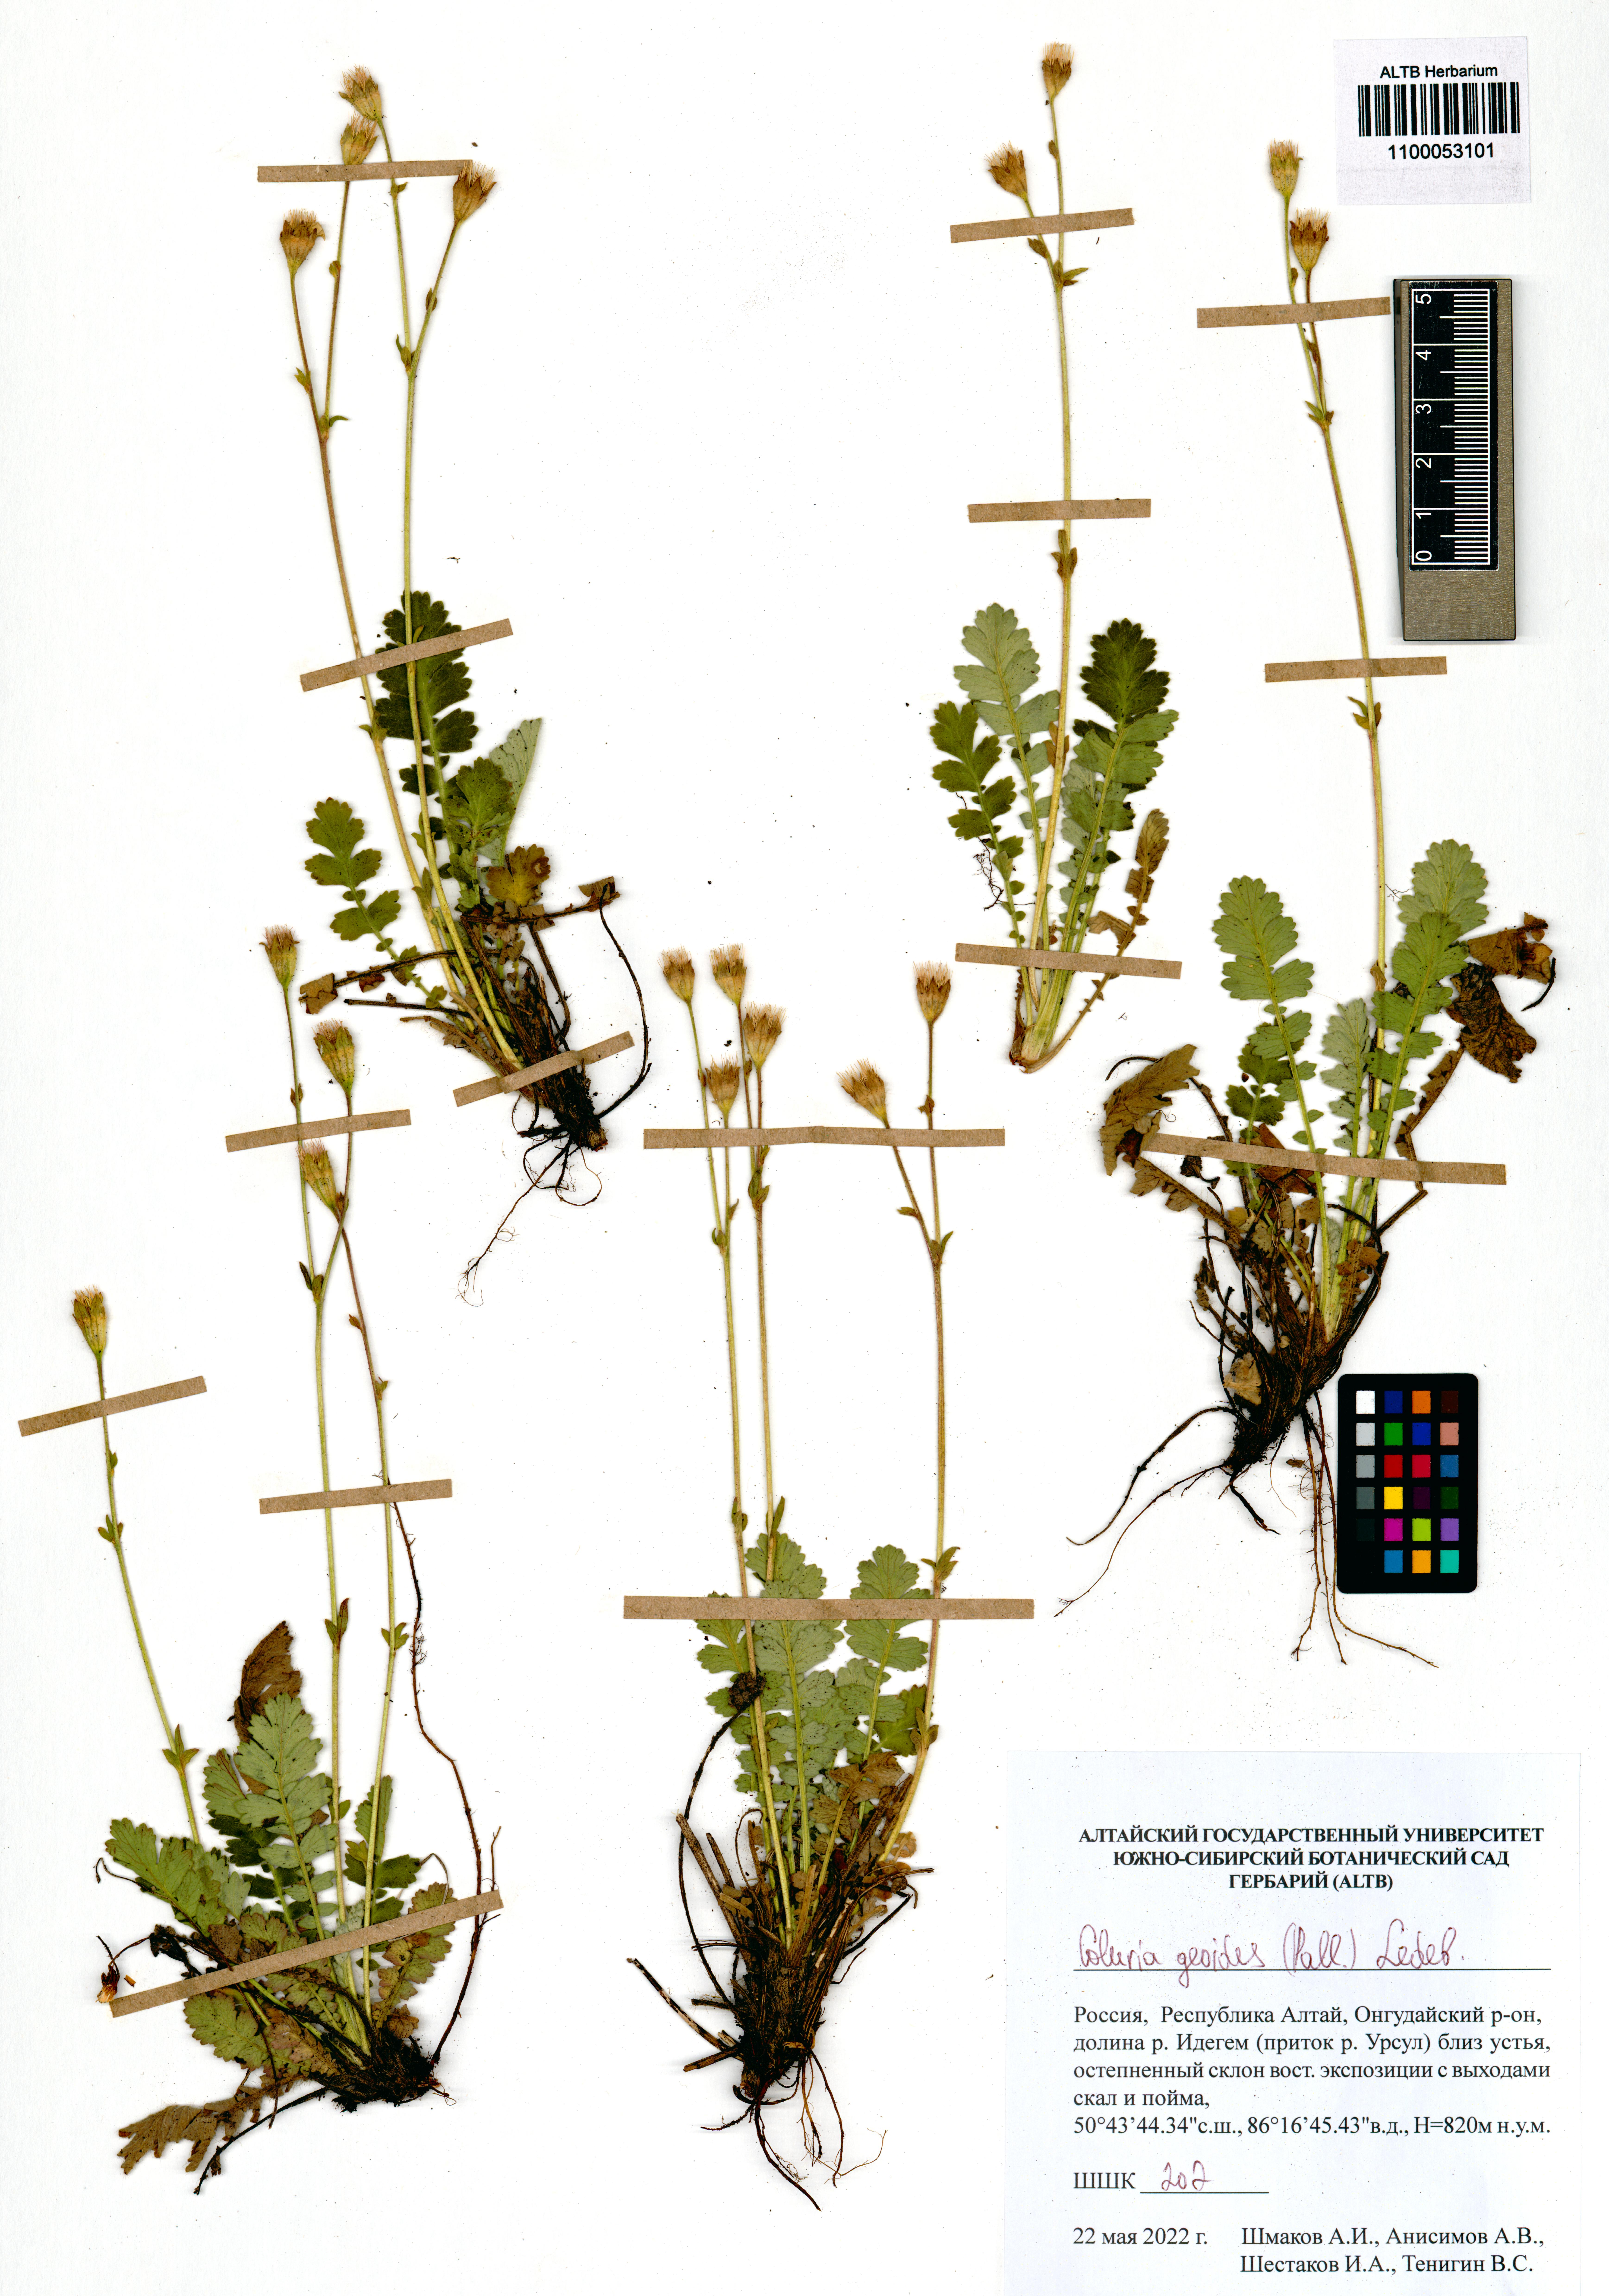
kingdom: Plantae
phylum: Tracheophyta
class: Magnoliopsida
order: Rosales
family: Rosaceae
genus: Geum
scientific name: Geum geoides
